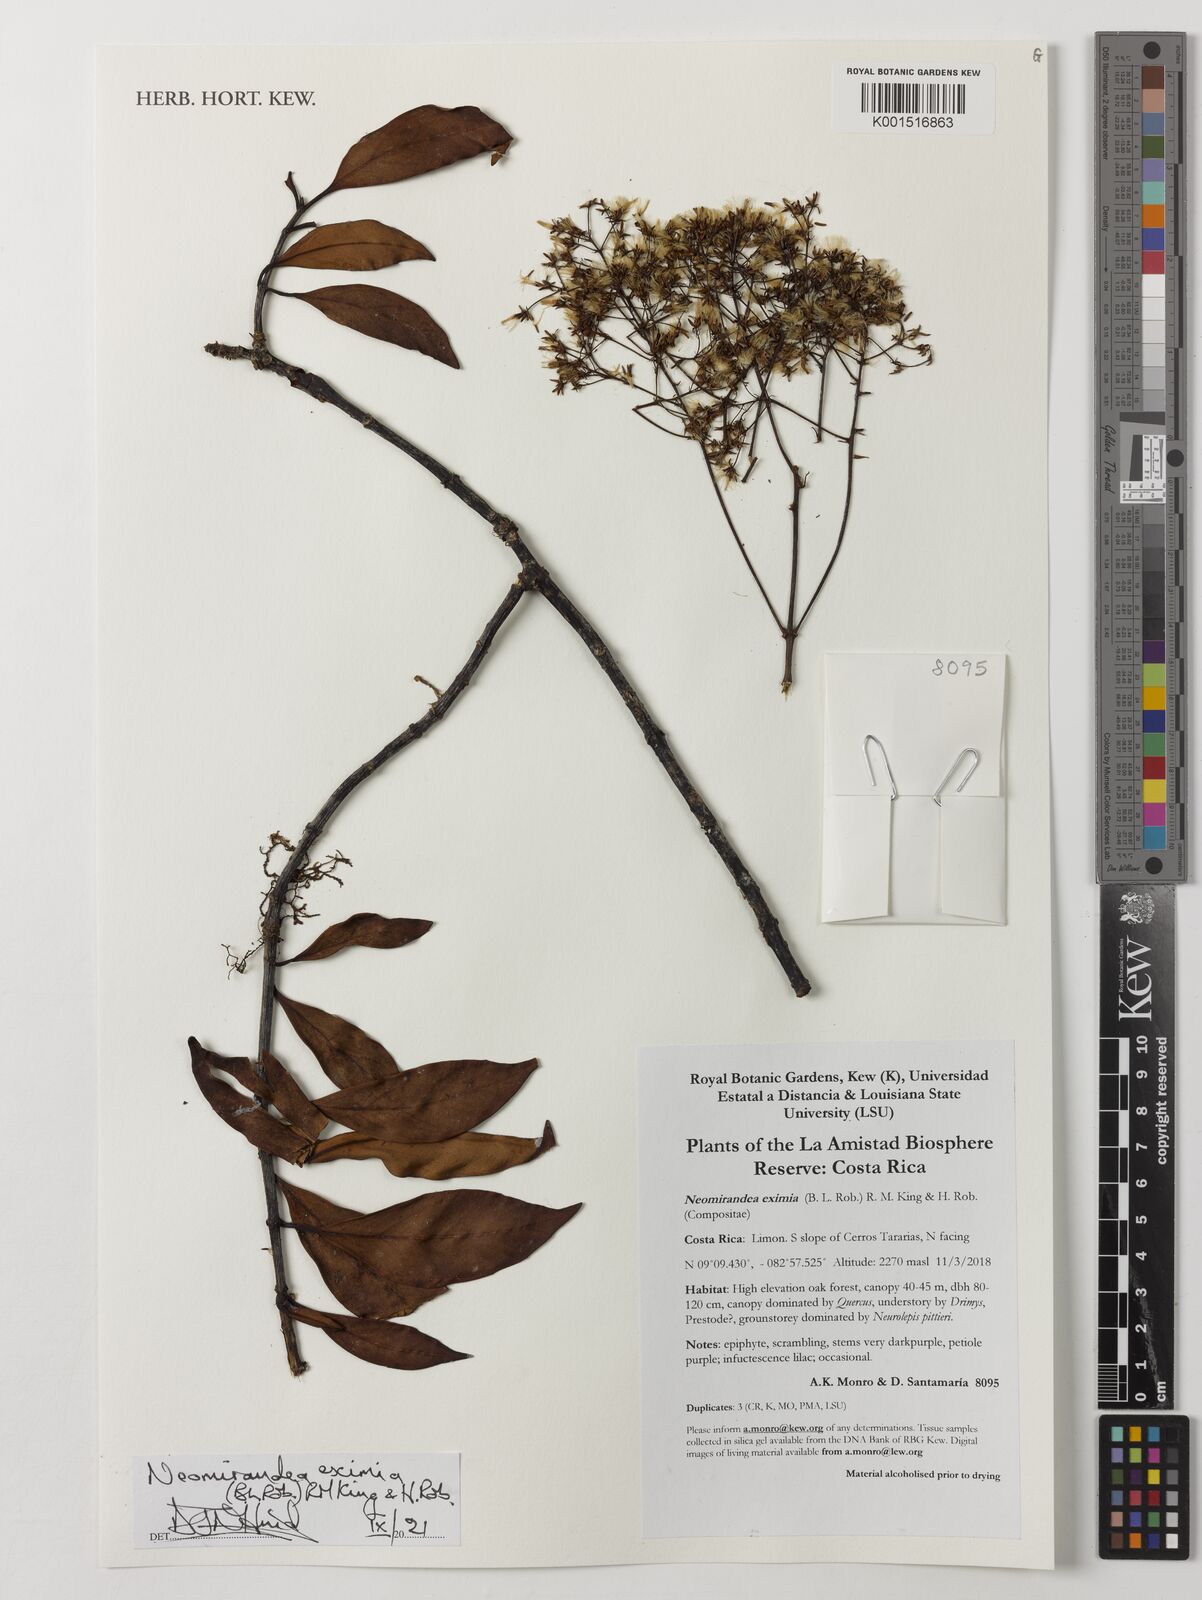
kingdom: Plantae
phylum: Tracheophyta
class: Magnoliopsida
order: Asterales
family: Asteraceae
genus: Neomirandea
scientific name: Neomirandea eximia
